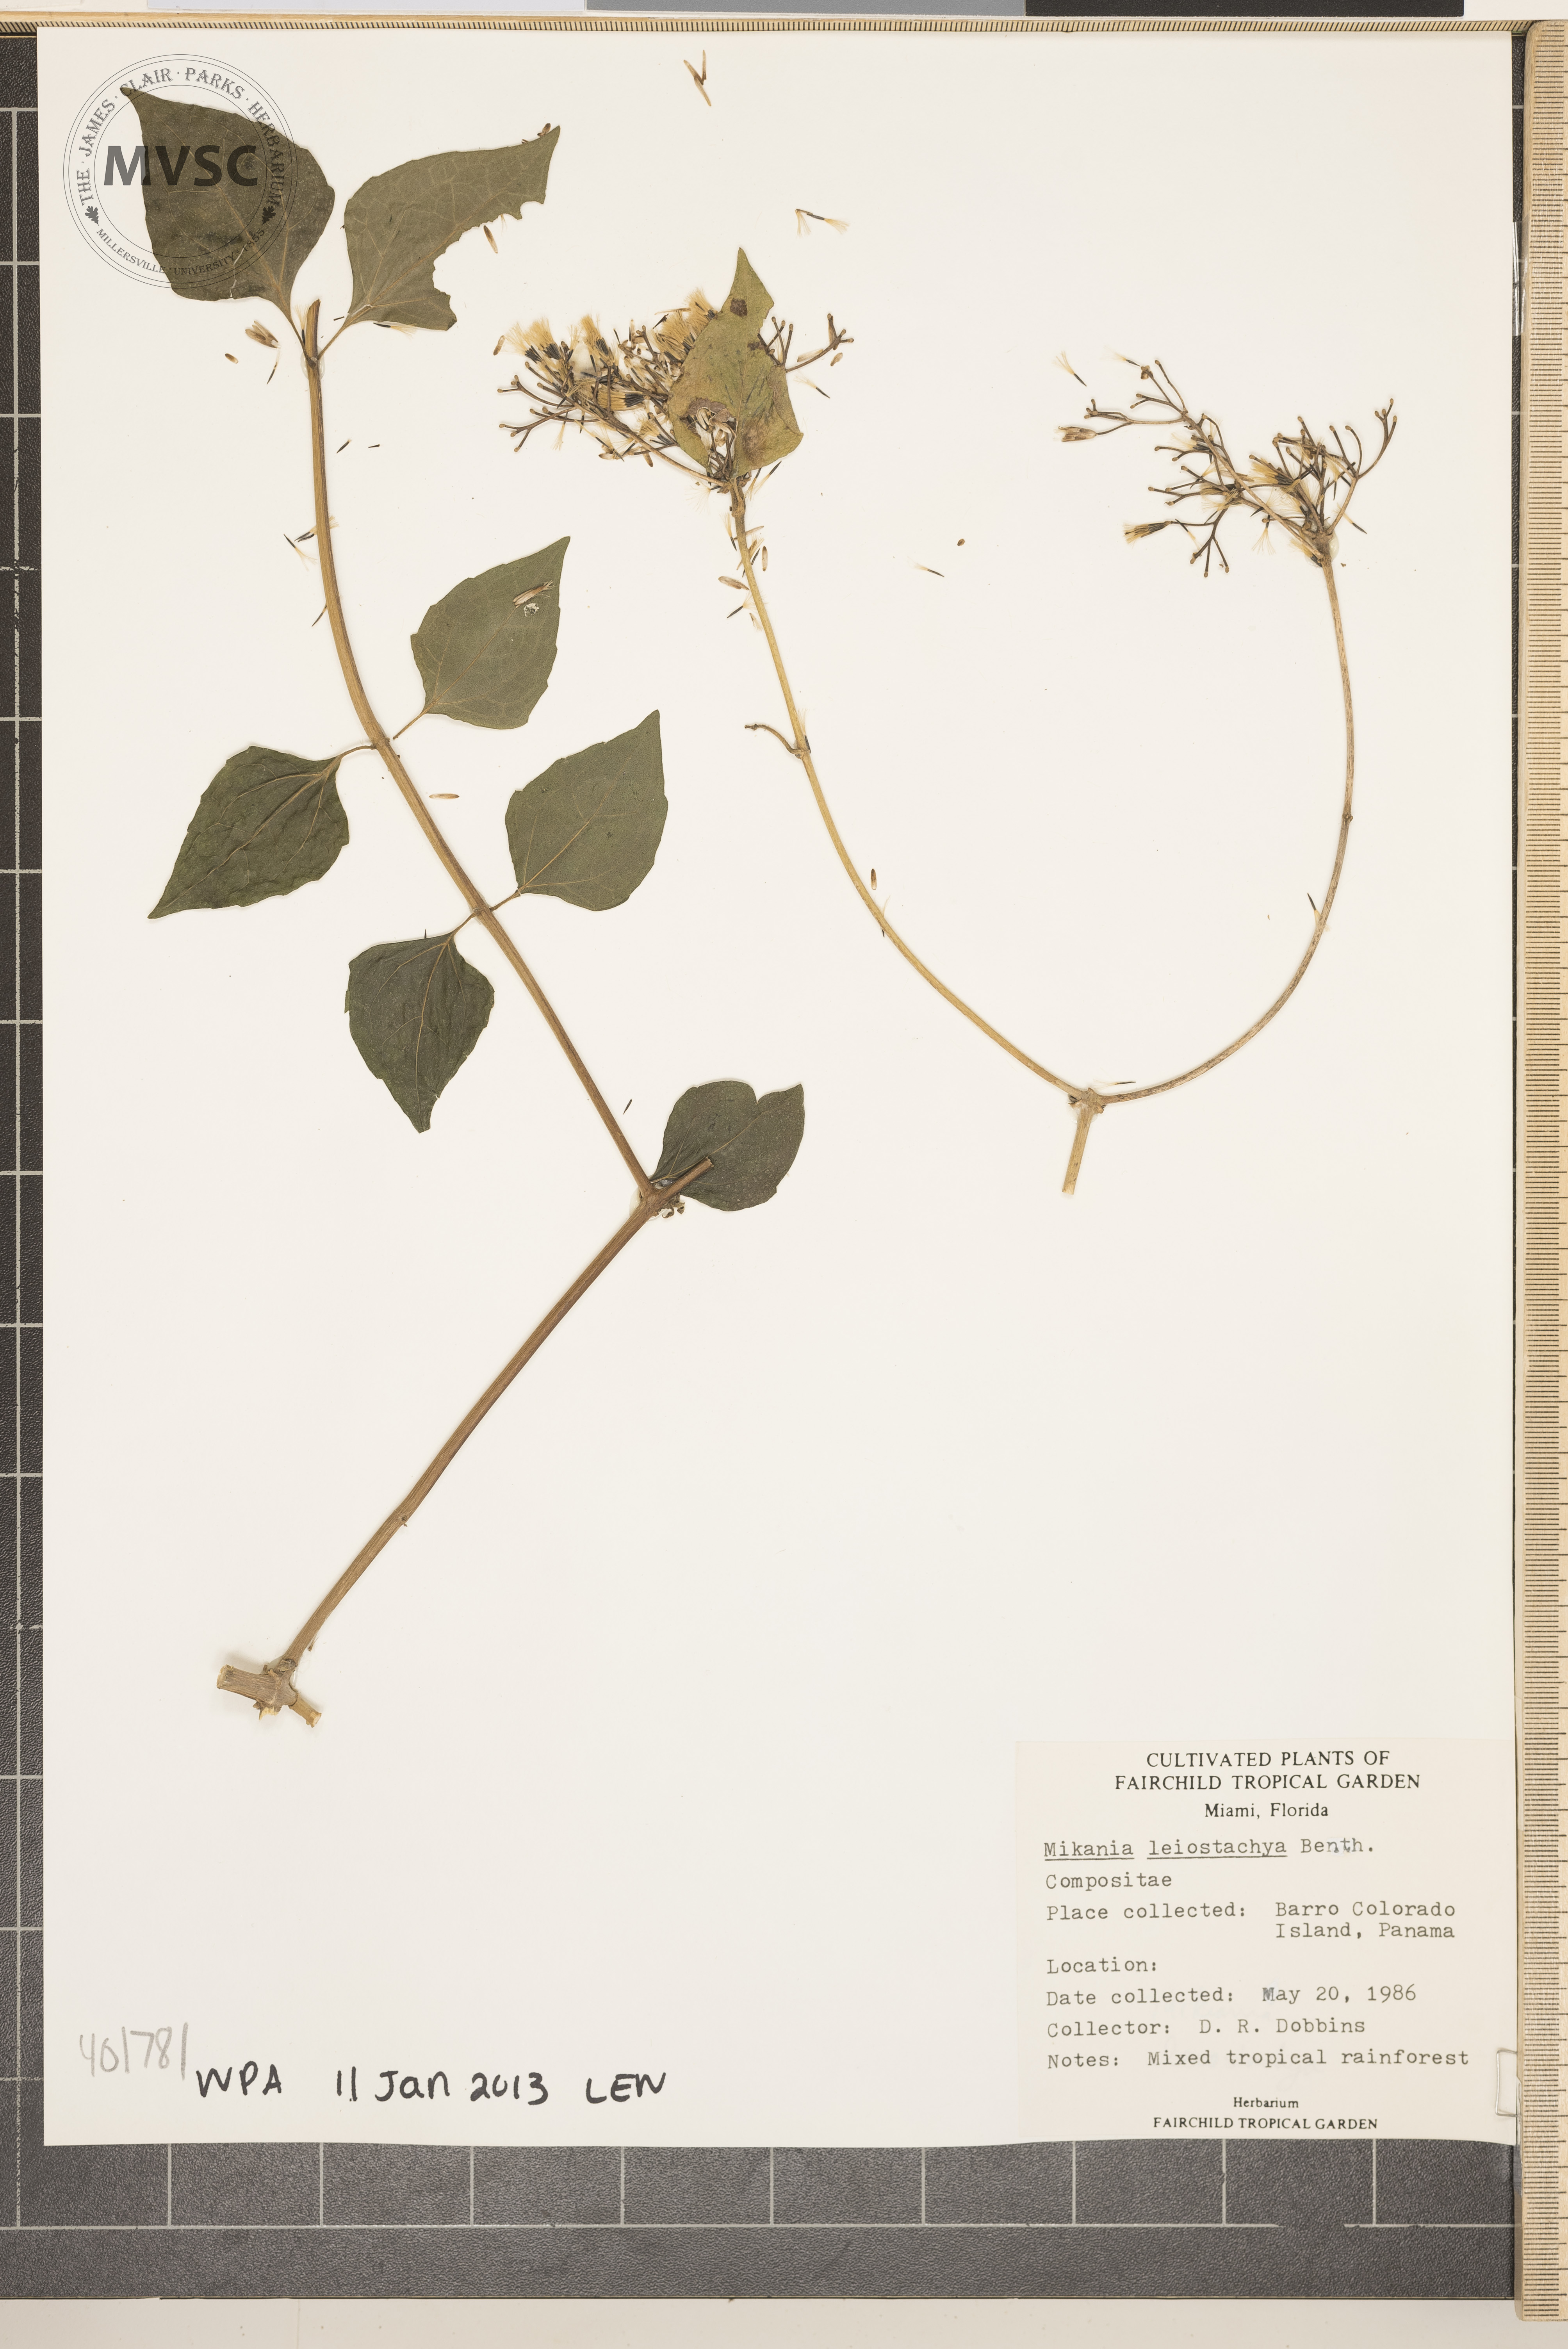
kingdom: Plantae
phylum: Tracheophyta
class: Magnoliopsida
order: Asterales
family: Asteraceae
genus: Mikania
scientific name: Mikania leiostachya
